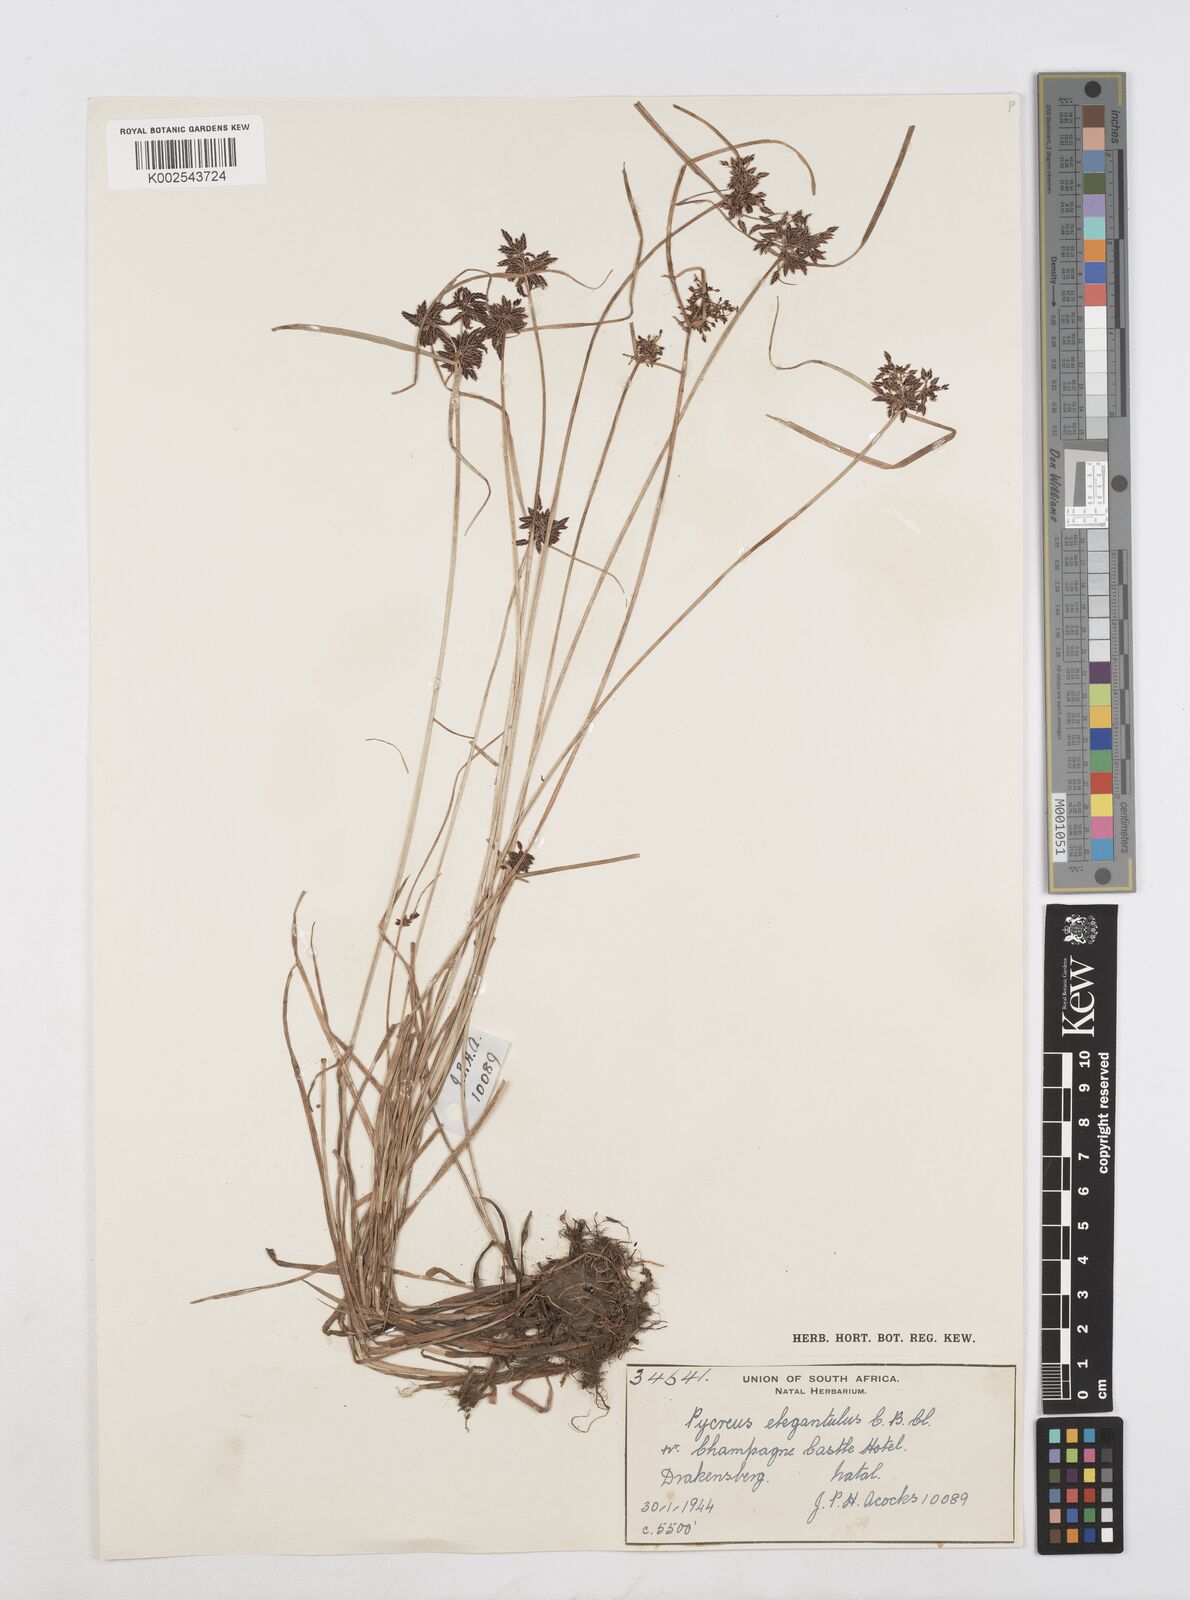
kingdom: Plantae
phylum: Tracheophyta
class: Liliopsida
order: Poales
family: Cyperaceae
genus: Cyperus
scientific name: Cyperus elegantulus
